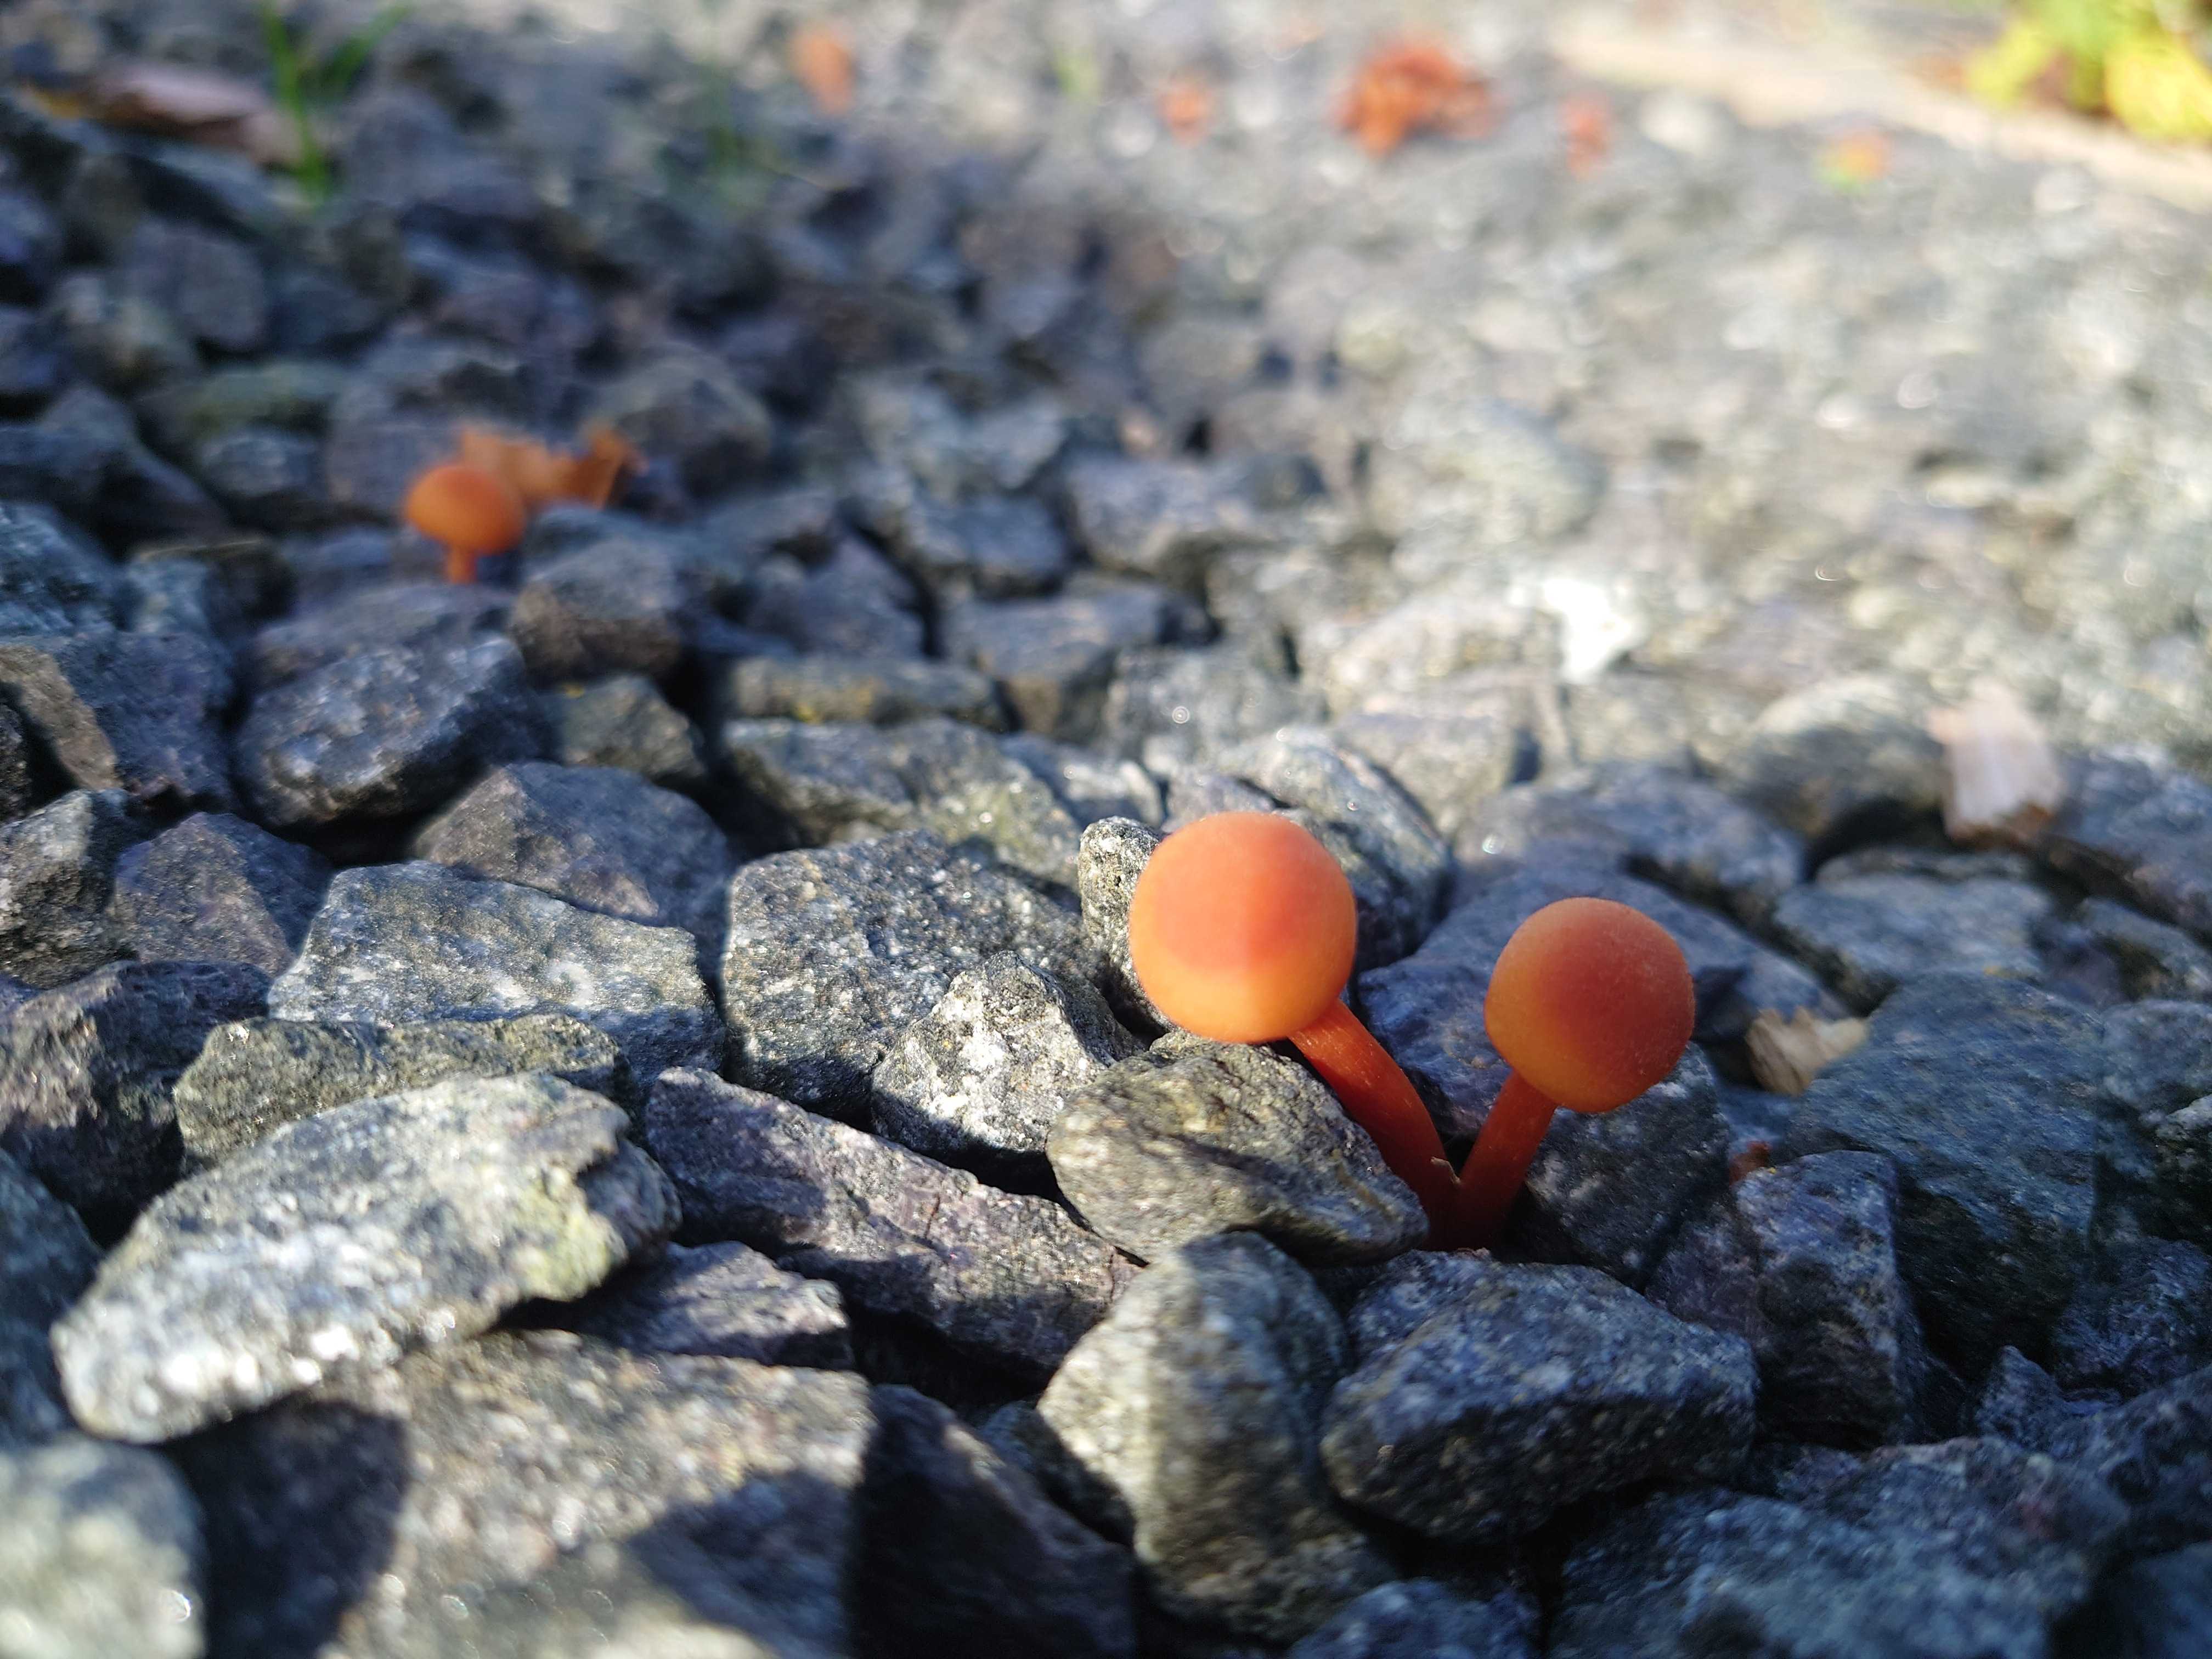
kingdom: Fungi
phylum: Basidiomycota
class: Agaricomycetes
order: Agaricales
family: Hygrophoraceae
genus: Hygrocybe
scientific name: Hygrocybe
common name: vokshat
